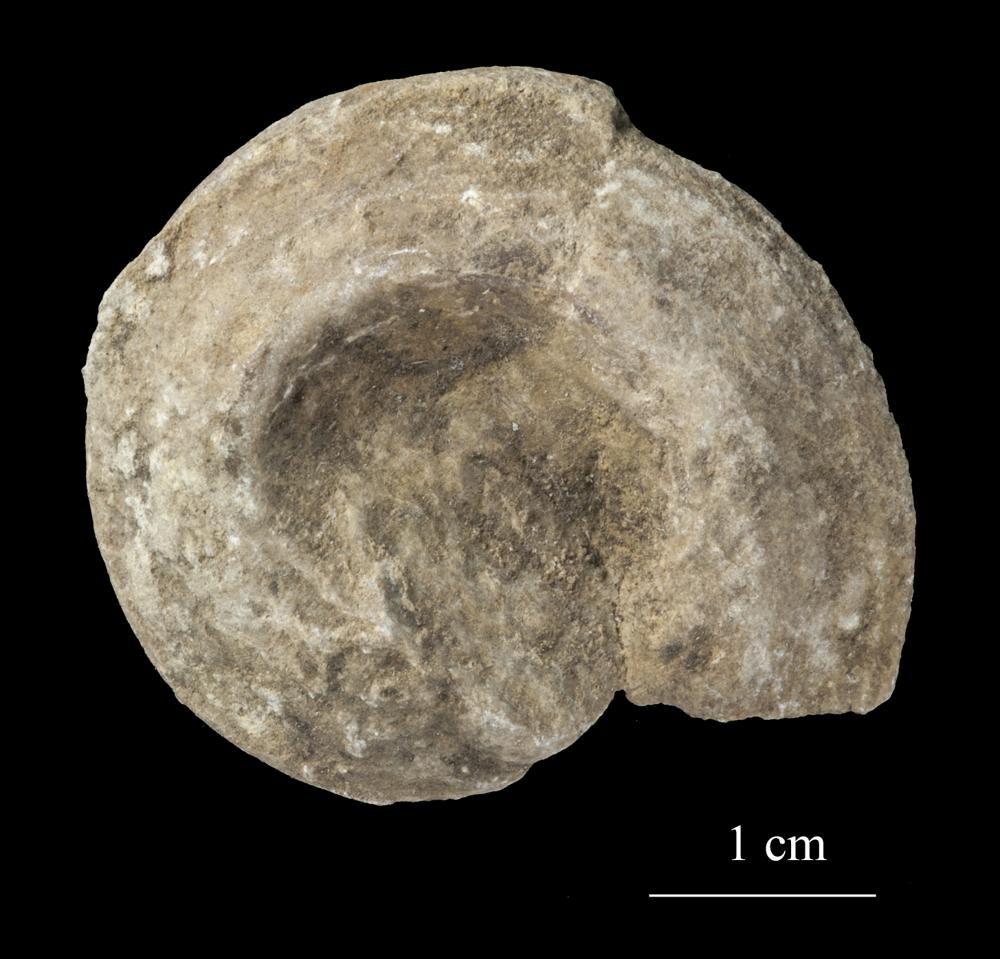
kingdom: Animalia
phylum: Mollusca
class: Gastropoda
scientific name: Gastropoda
